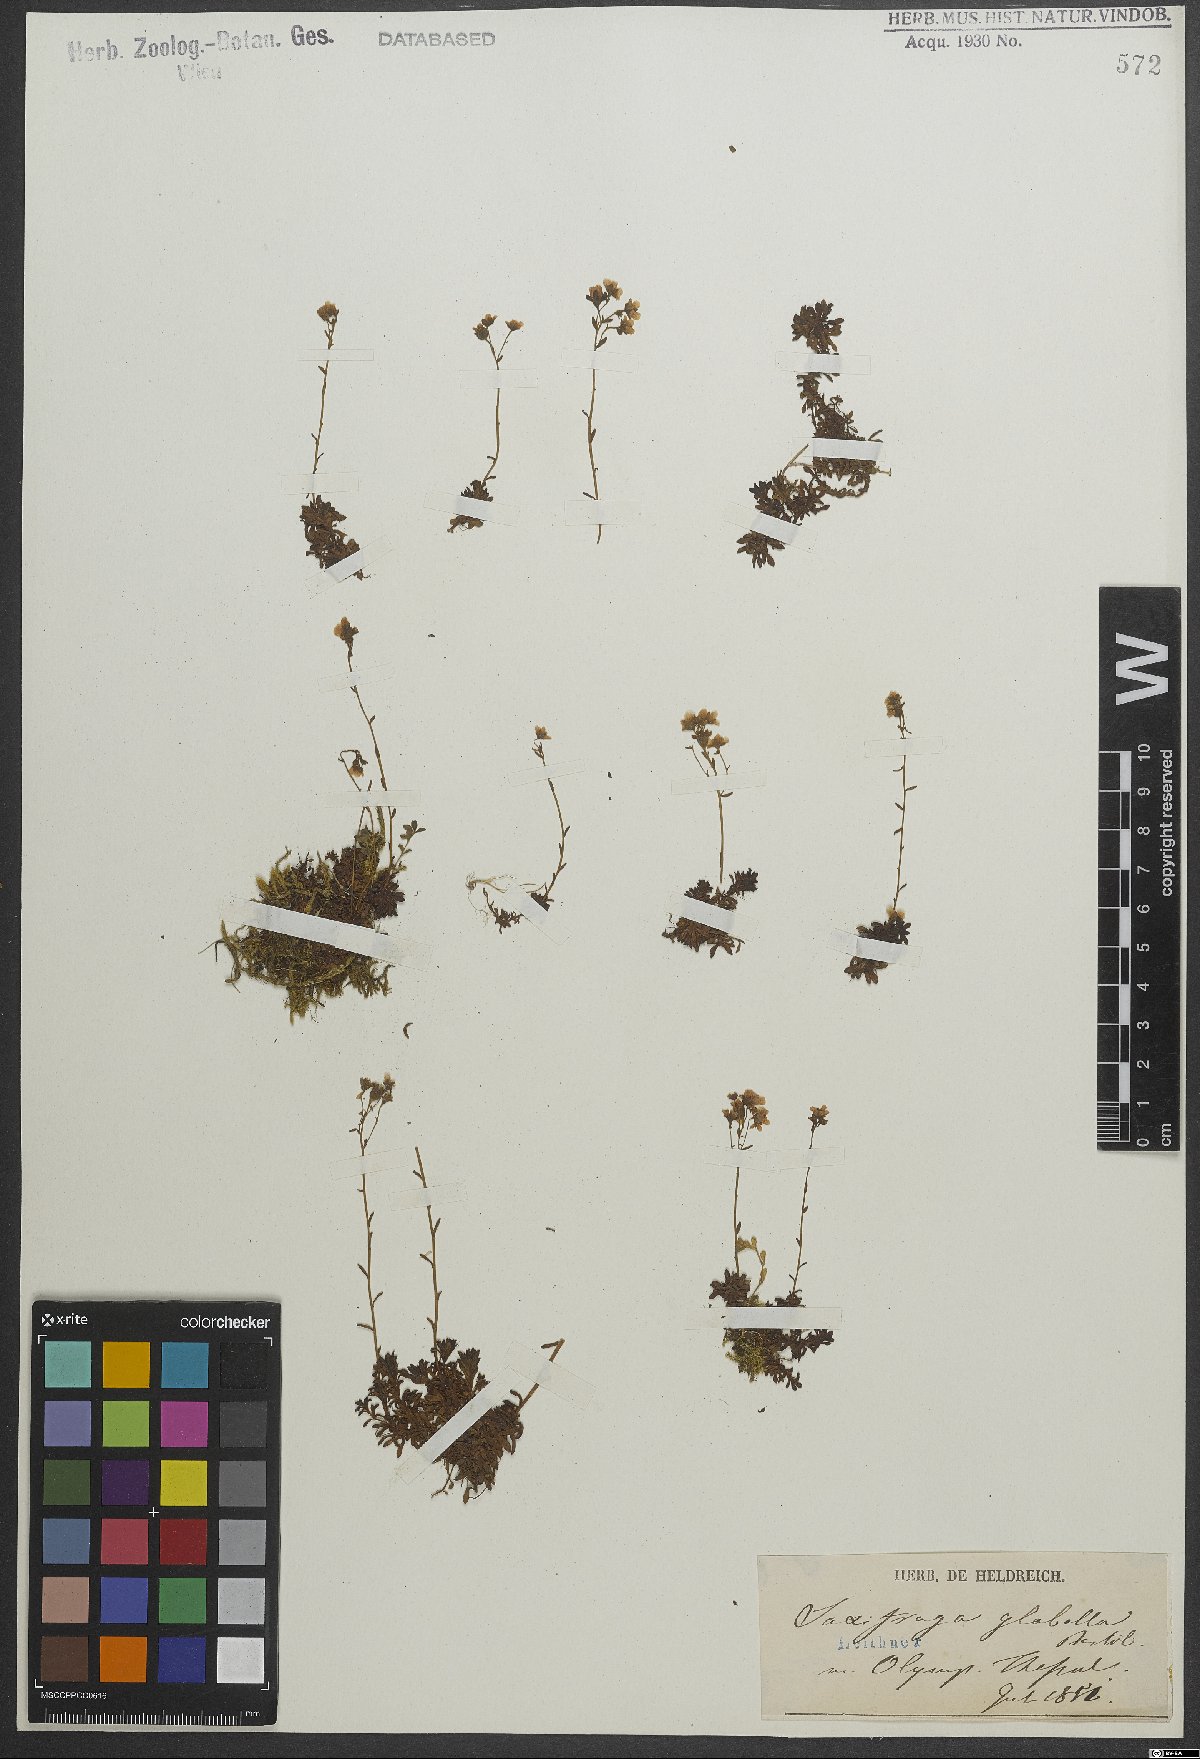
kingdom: Plantae
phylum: Tracheophyta
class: Magnoliopsida
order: Saxifragales
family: Saxifragaceae
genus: Saxifraga
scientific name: Saxifraga glabella
